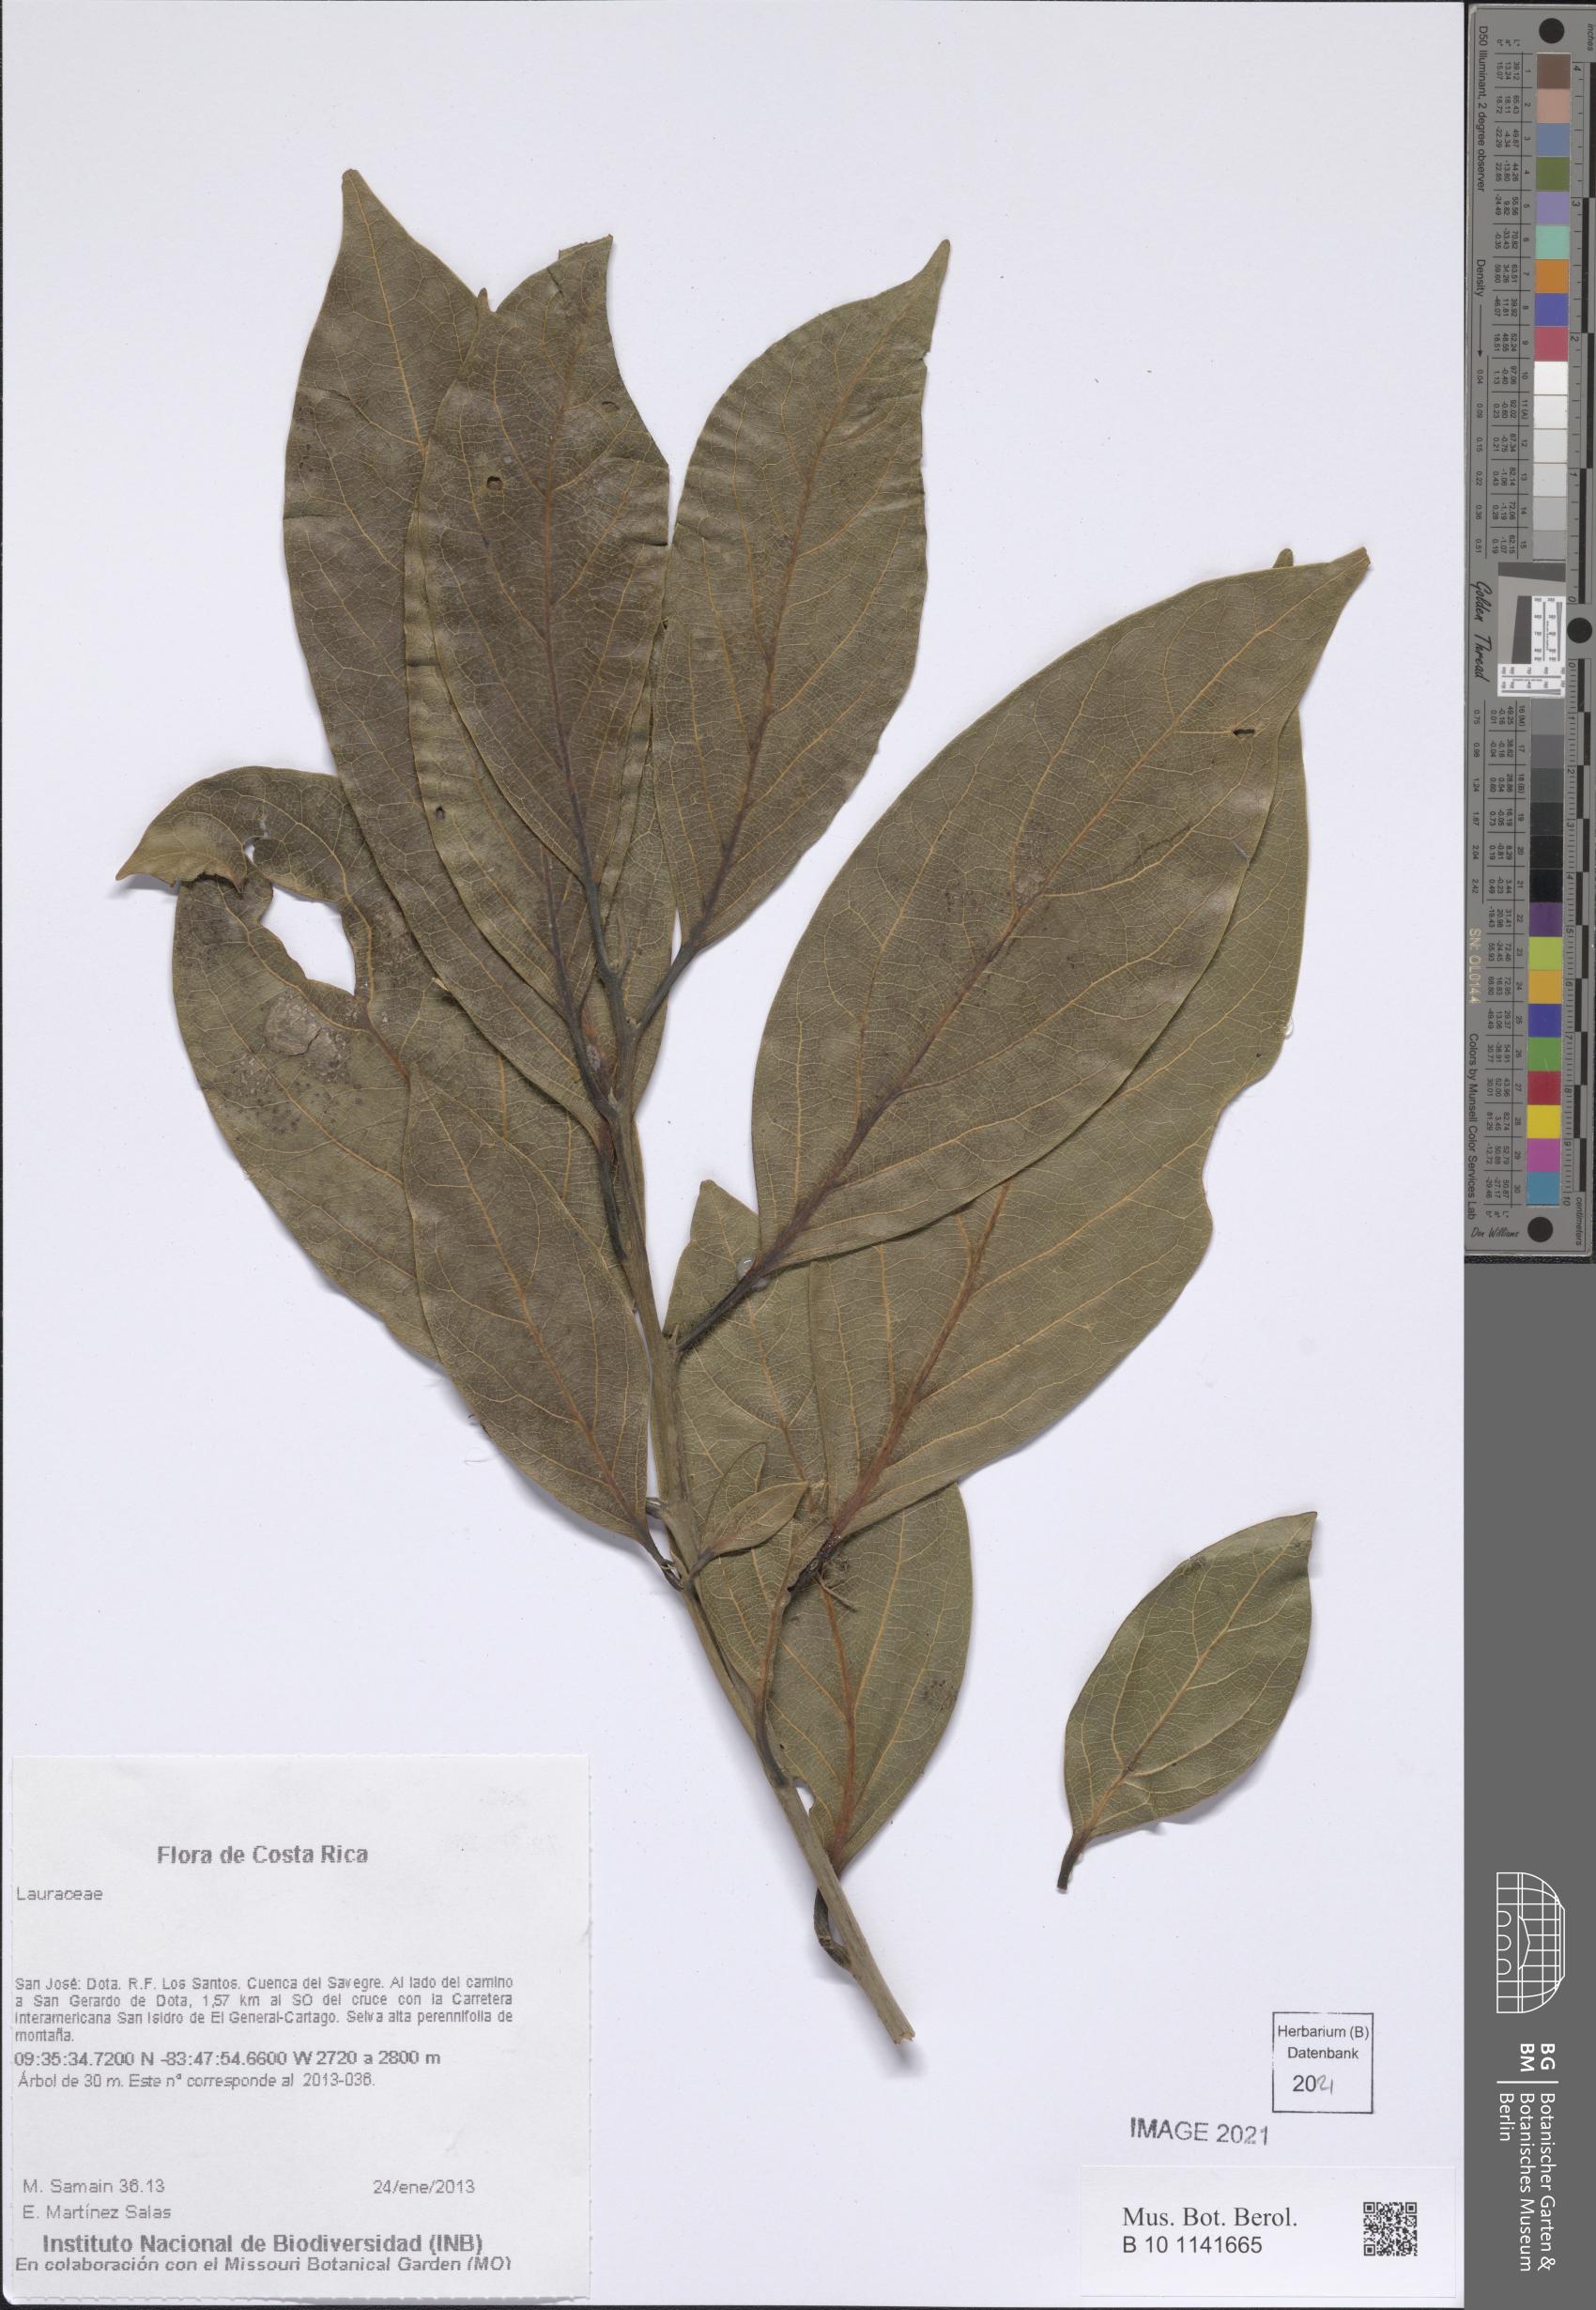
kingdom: Plantae
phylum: Tracheophyta
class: Magnoliopsida
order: Laurales
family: Lauraceae
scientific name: Lauraceae
